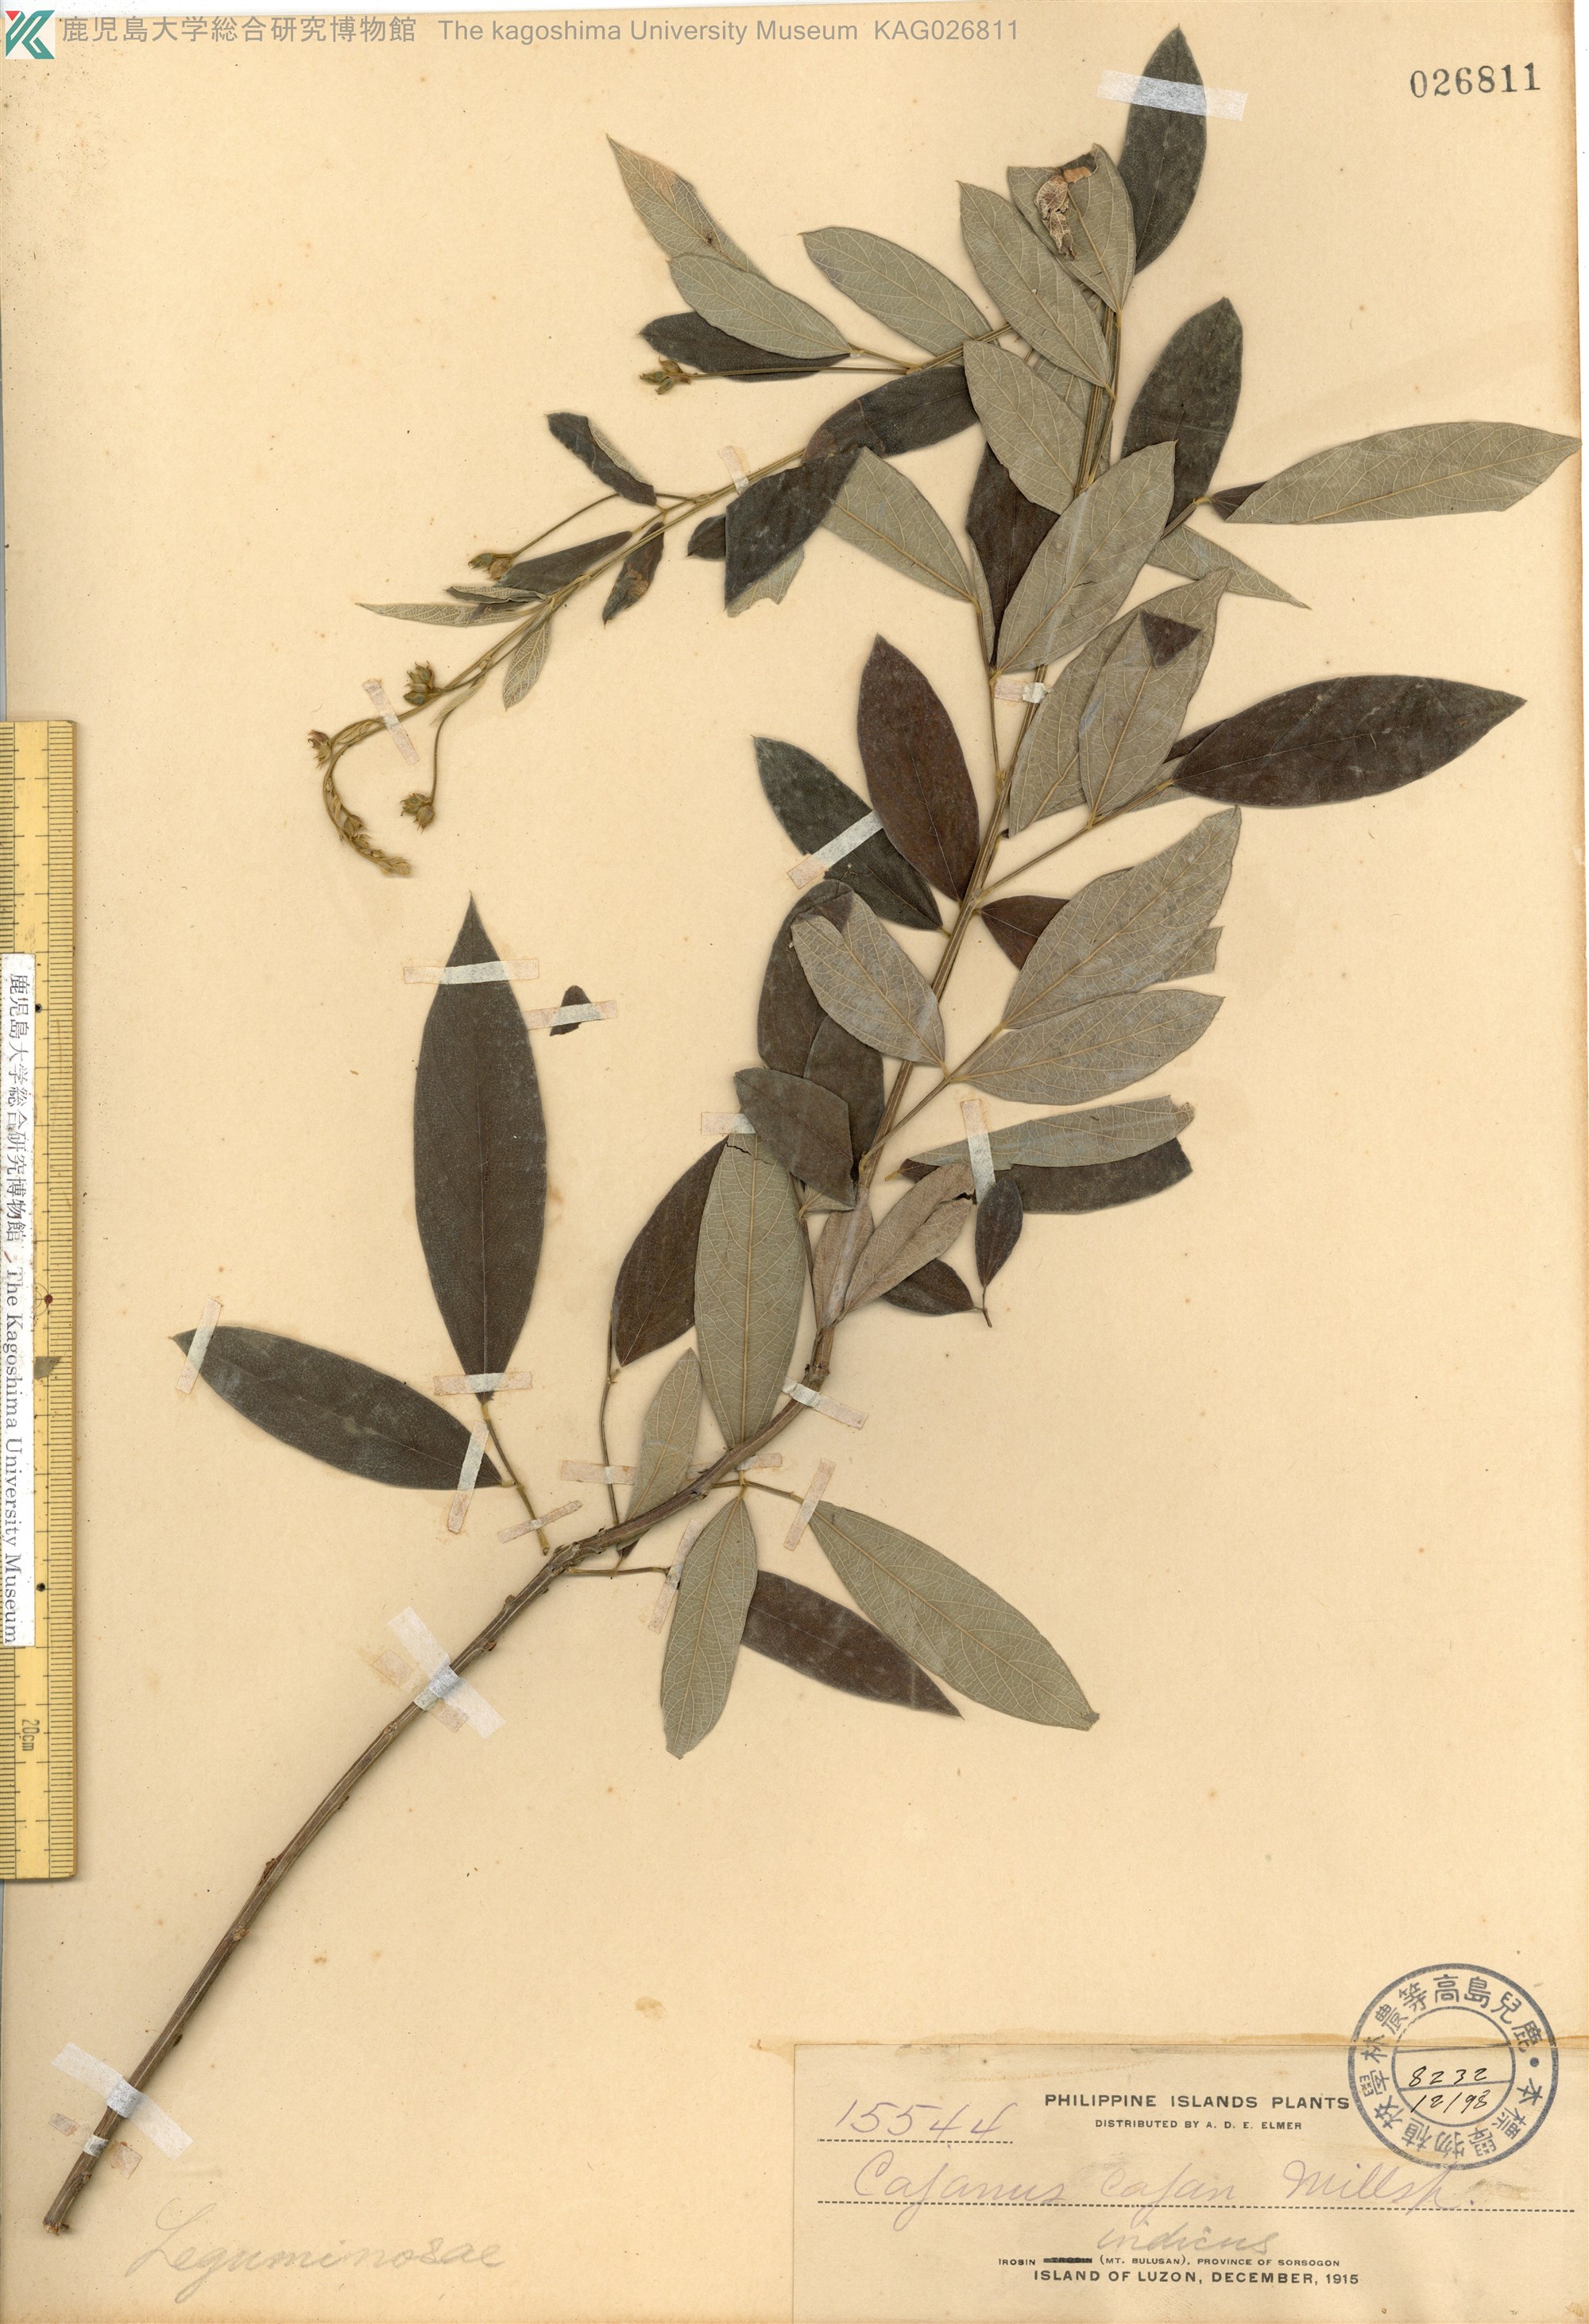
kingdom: Plantae
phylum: Tracheophyta
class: Magnoliopsida
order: Fabales
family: Fabaceae
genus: Cajanus
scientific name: Cajanus cajan
